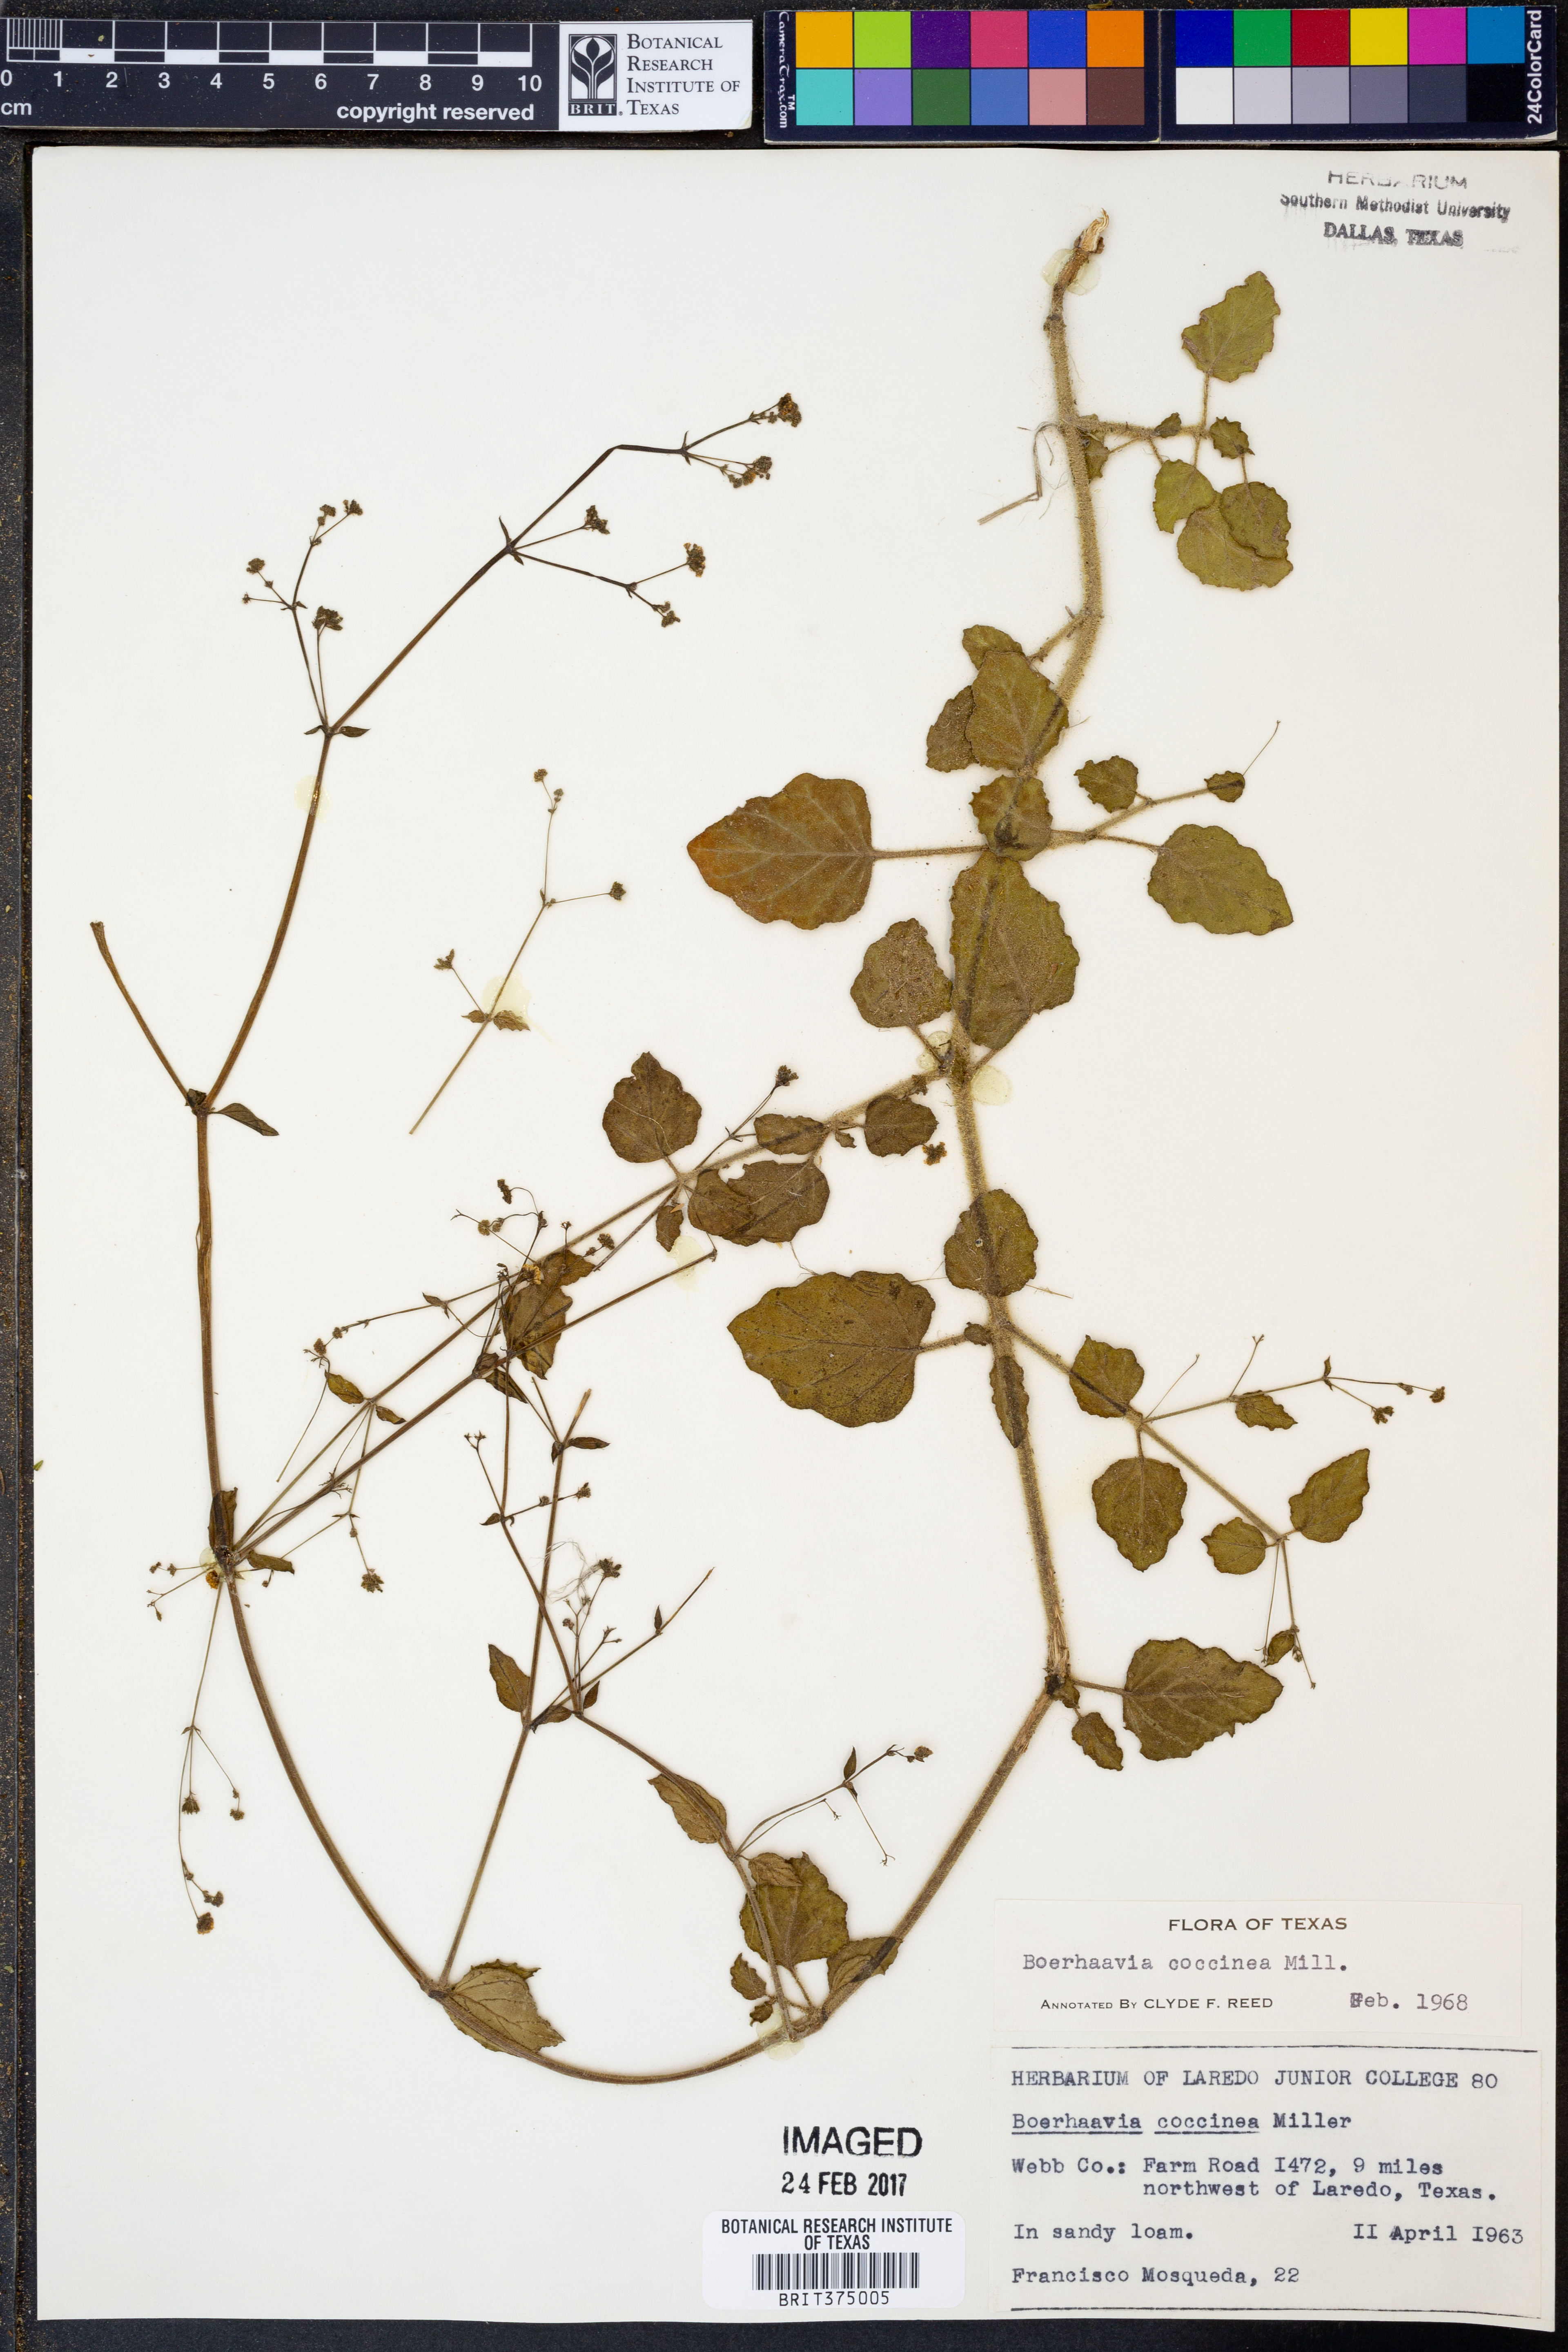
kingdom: Plantae
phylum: Tracheophyta
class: Magnoliopsida
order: Caryophyllales
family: Nyctaginaceae
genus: Boerhavia
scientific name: Boerhavia coccinea
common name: Scarlet spiderling
